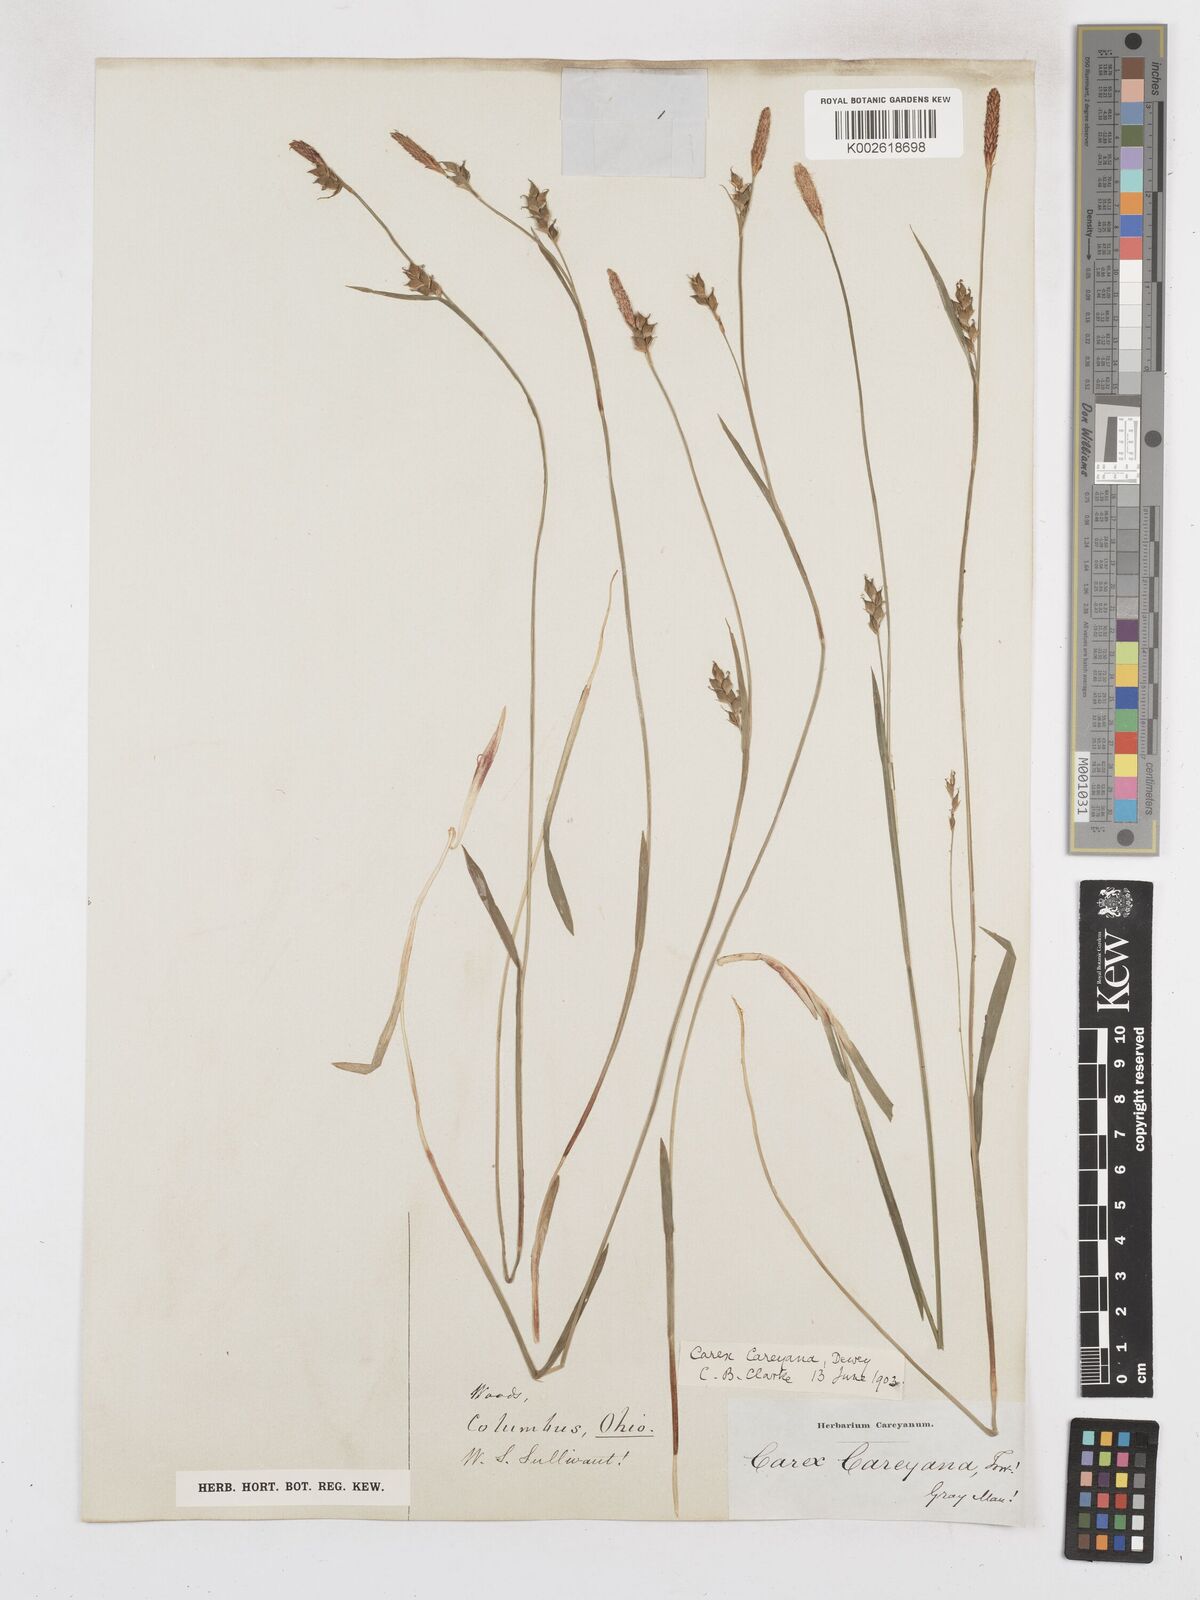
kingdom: Plantae
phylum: Tracheophyta
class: Liliopsida
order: Poales
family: Cyperaceae
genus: Carex
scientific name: Carex careyana
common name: Carey's sedge
